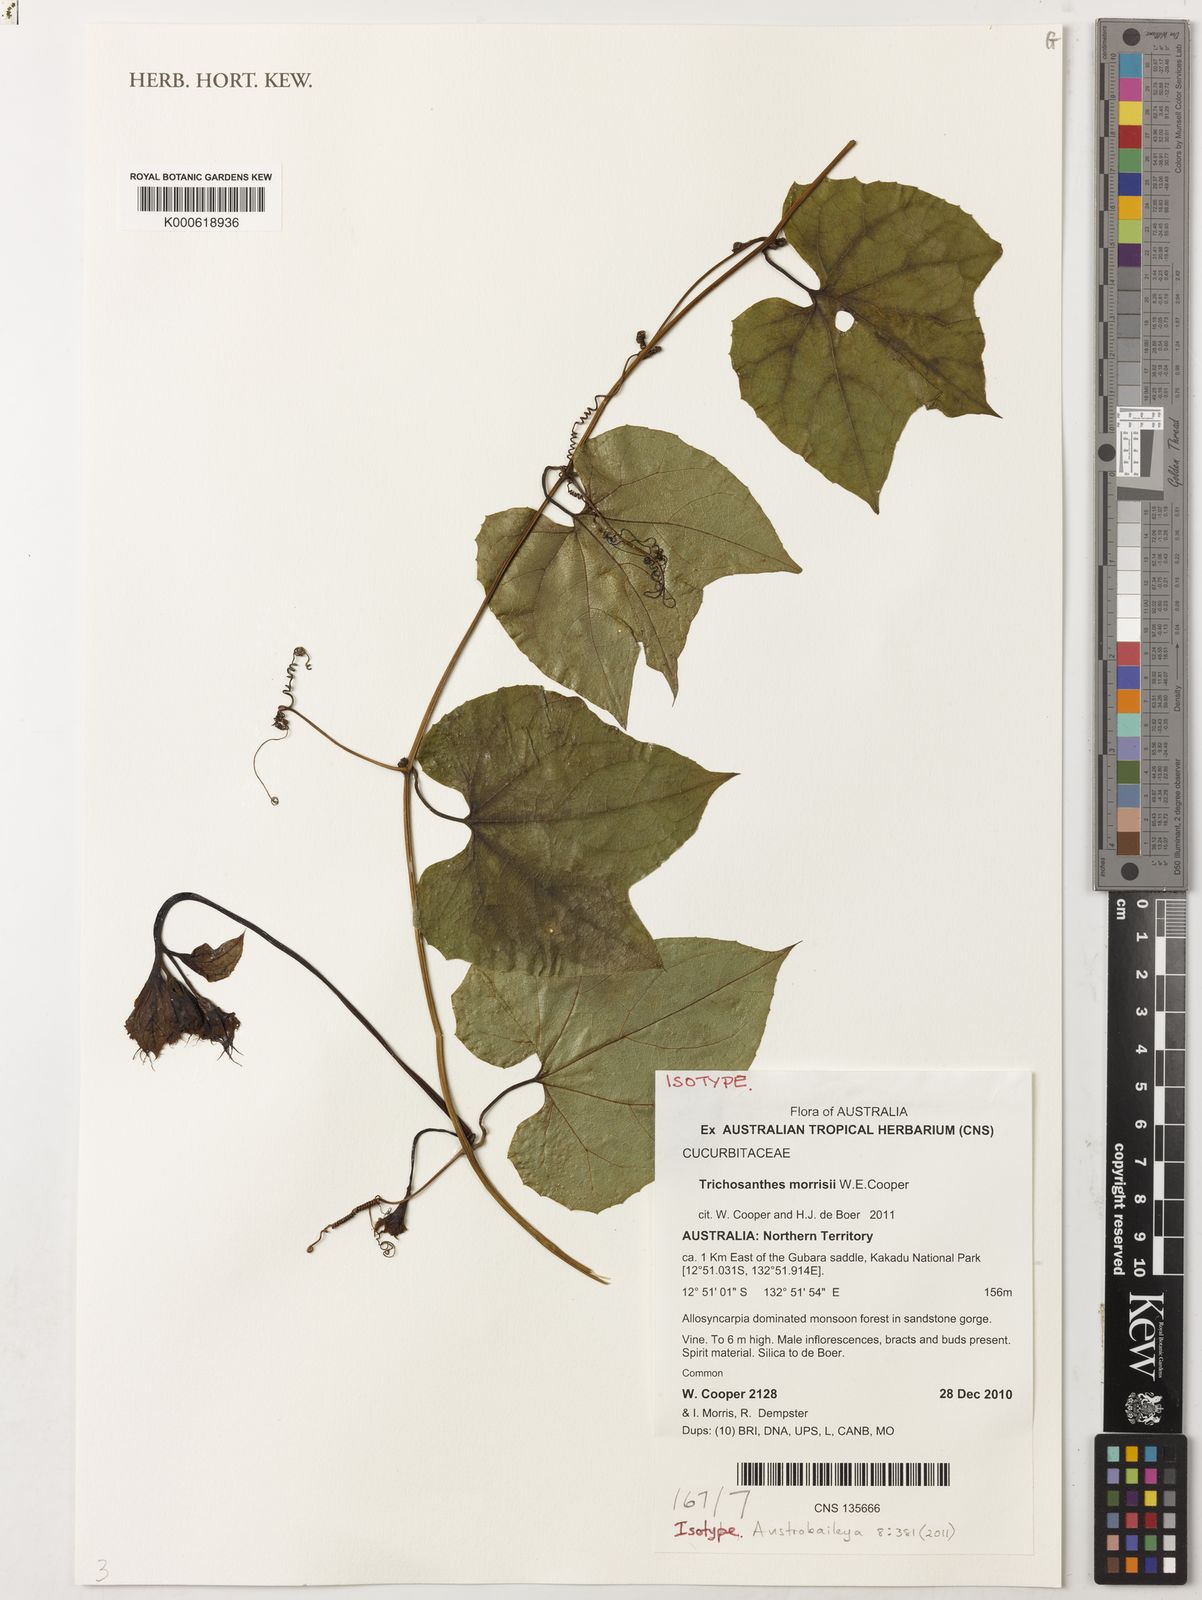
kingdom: Plantae
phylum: Tracheophyta
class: Magnoliopsida
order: Cucurbitales
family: Cucurbitaceae
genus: Trichosanthes
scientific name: Trichosanthes morrisii
